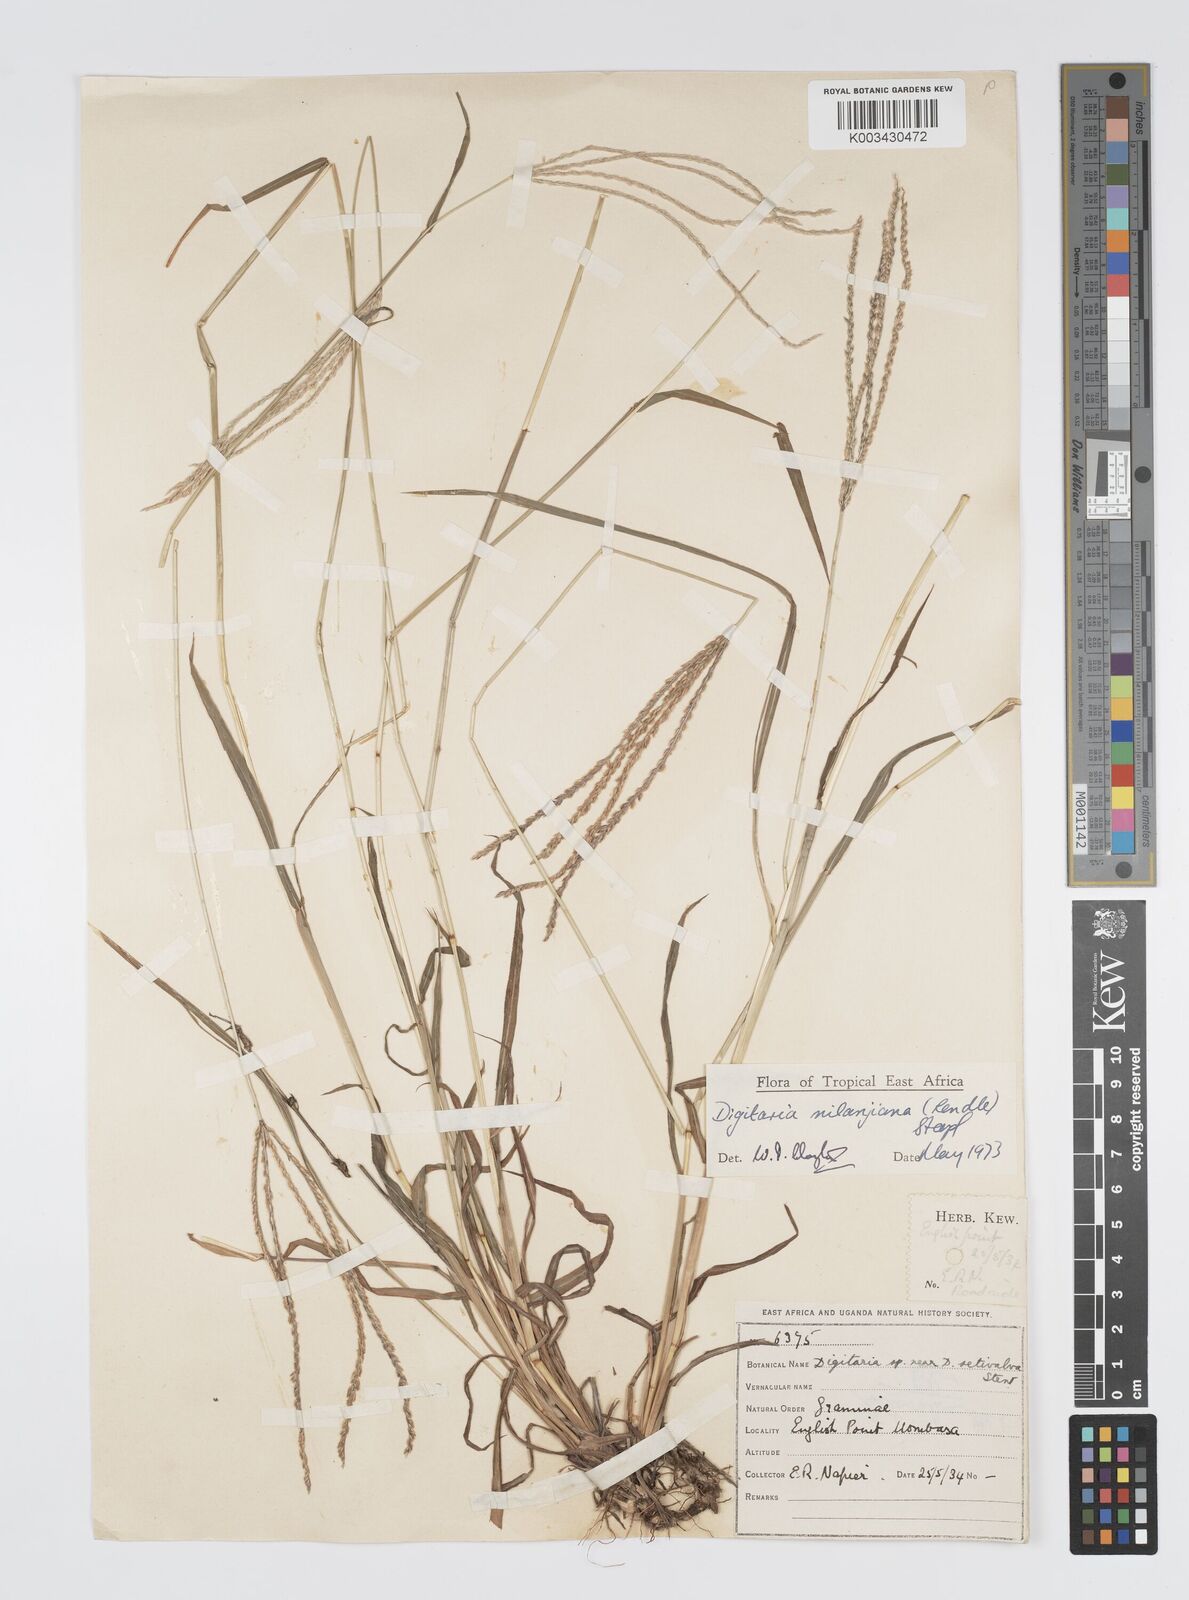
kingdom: Plantae
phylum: Tracheophyta
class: Liliopsida
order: Poales
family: Poaceae
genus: Digitaria
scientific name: Digitaria milanjiana
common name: Madagascar crabgrass
